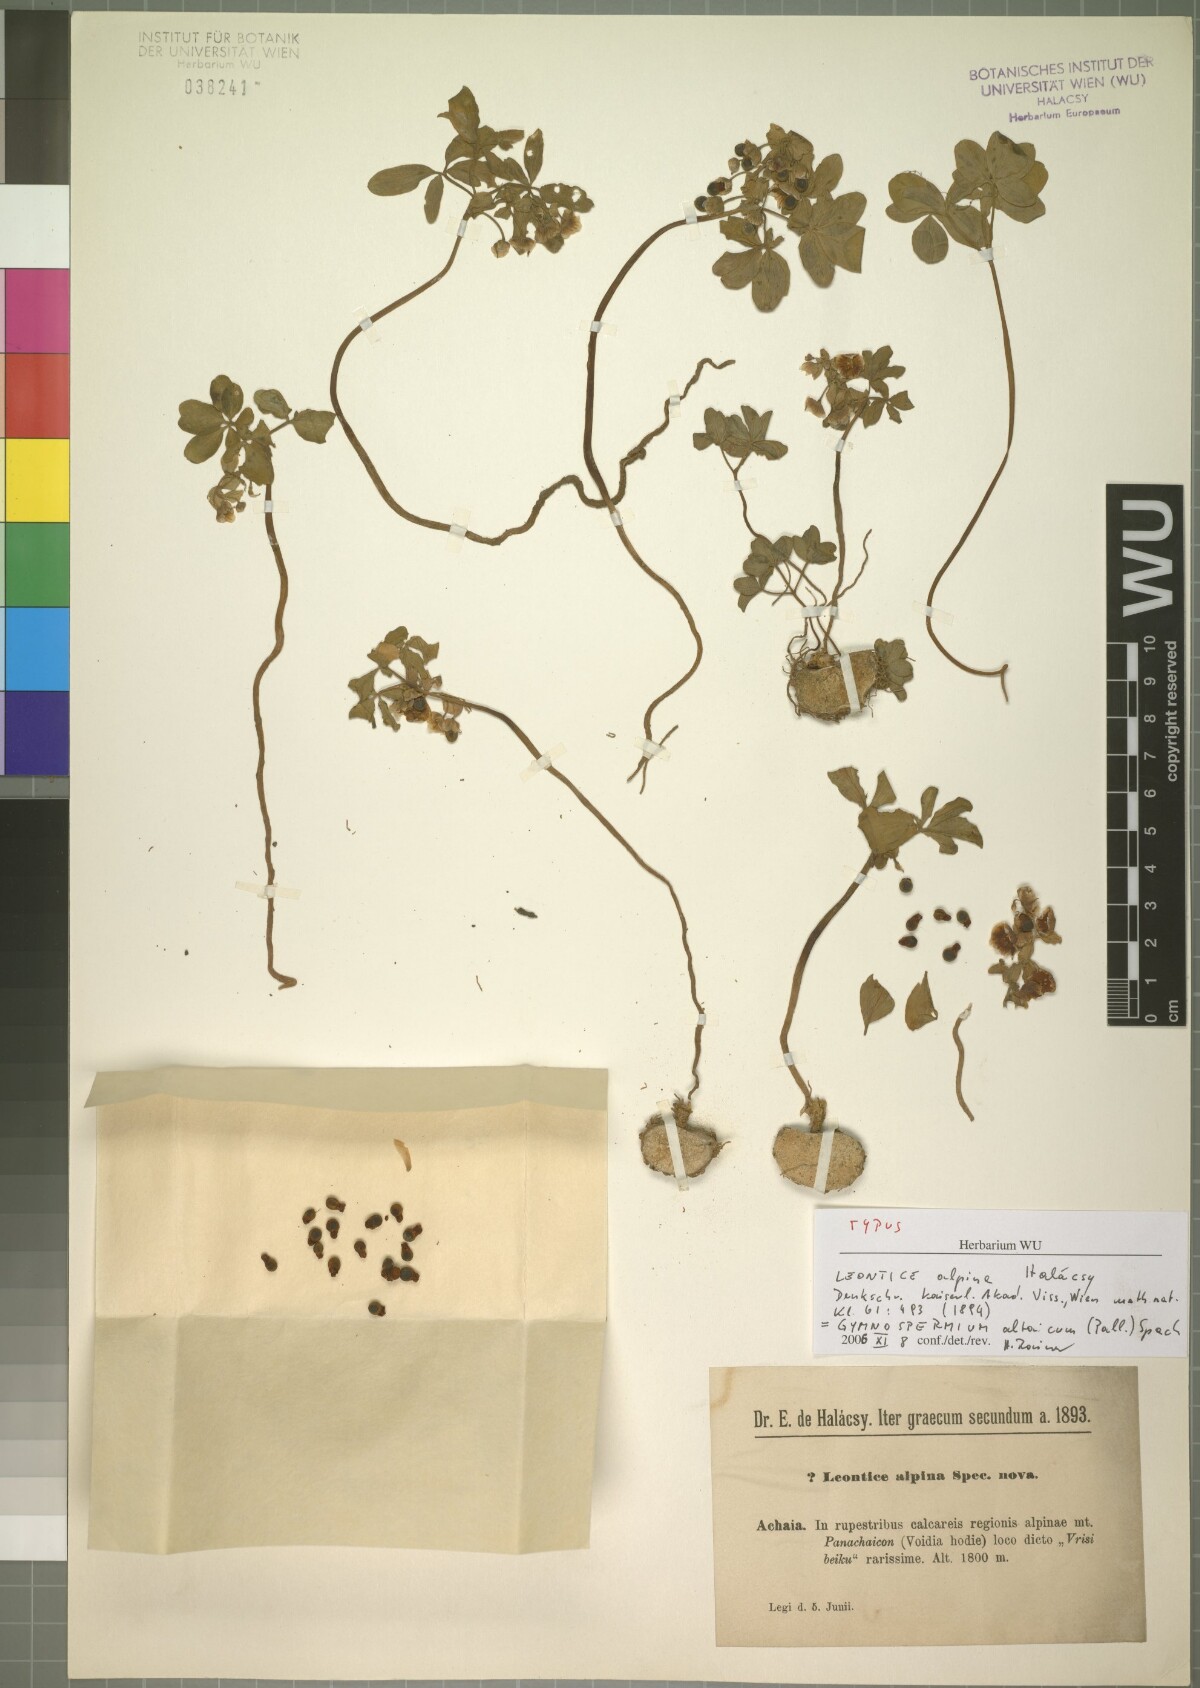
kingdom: Plantae
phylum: Tracheophyta
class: Magnoliopsida
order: Ranunculales
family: Berberidaceae
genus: Gymnospermium
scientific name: Gymnospermium altaicum
